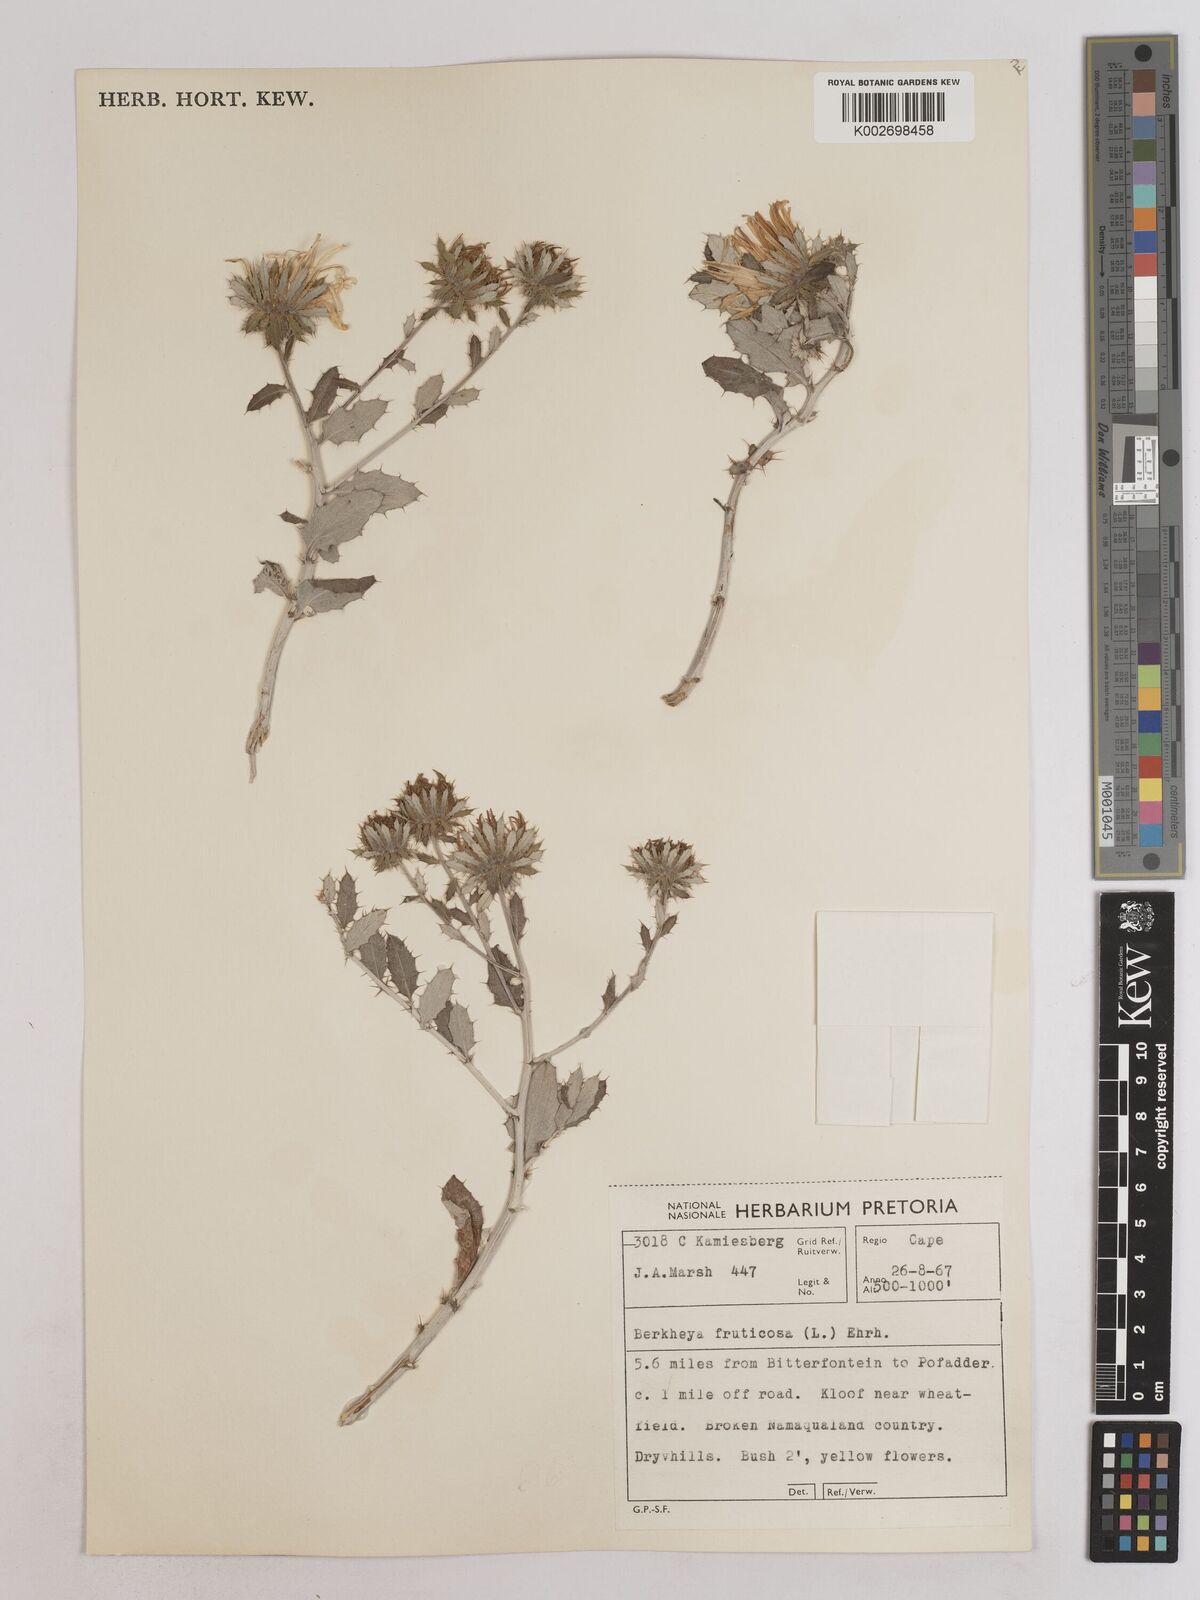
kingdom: Plantae
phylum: Tracheophyta
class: Magnoliopsida
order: Asterales
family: Asteraceae
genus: Berkheya
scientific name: Berkheya fruticosa
